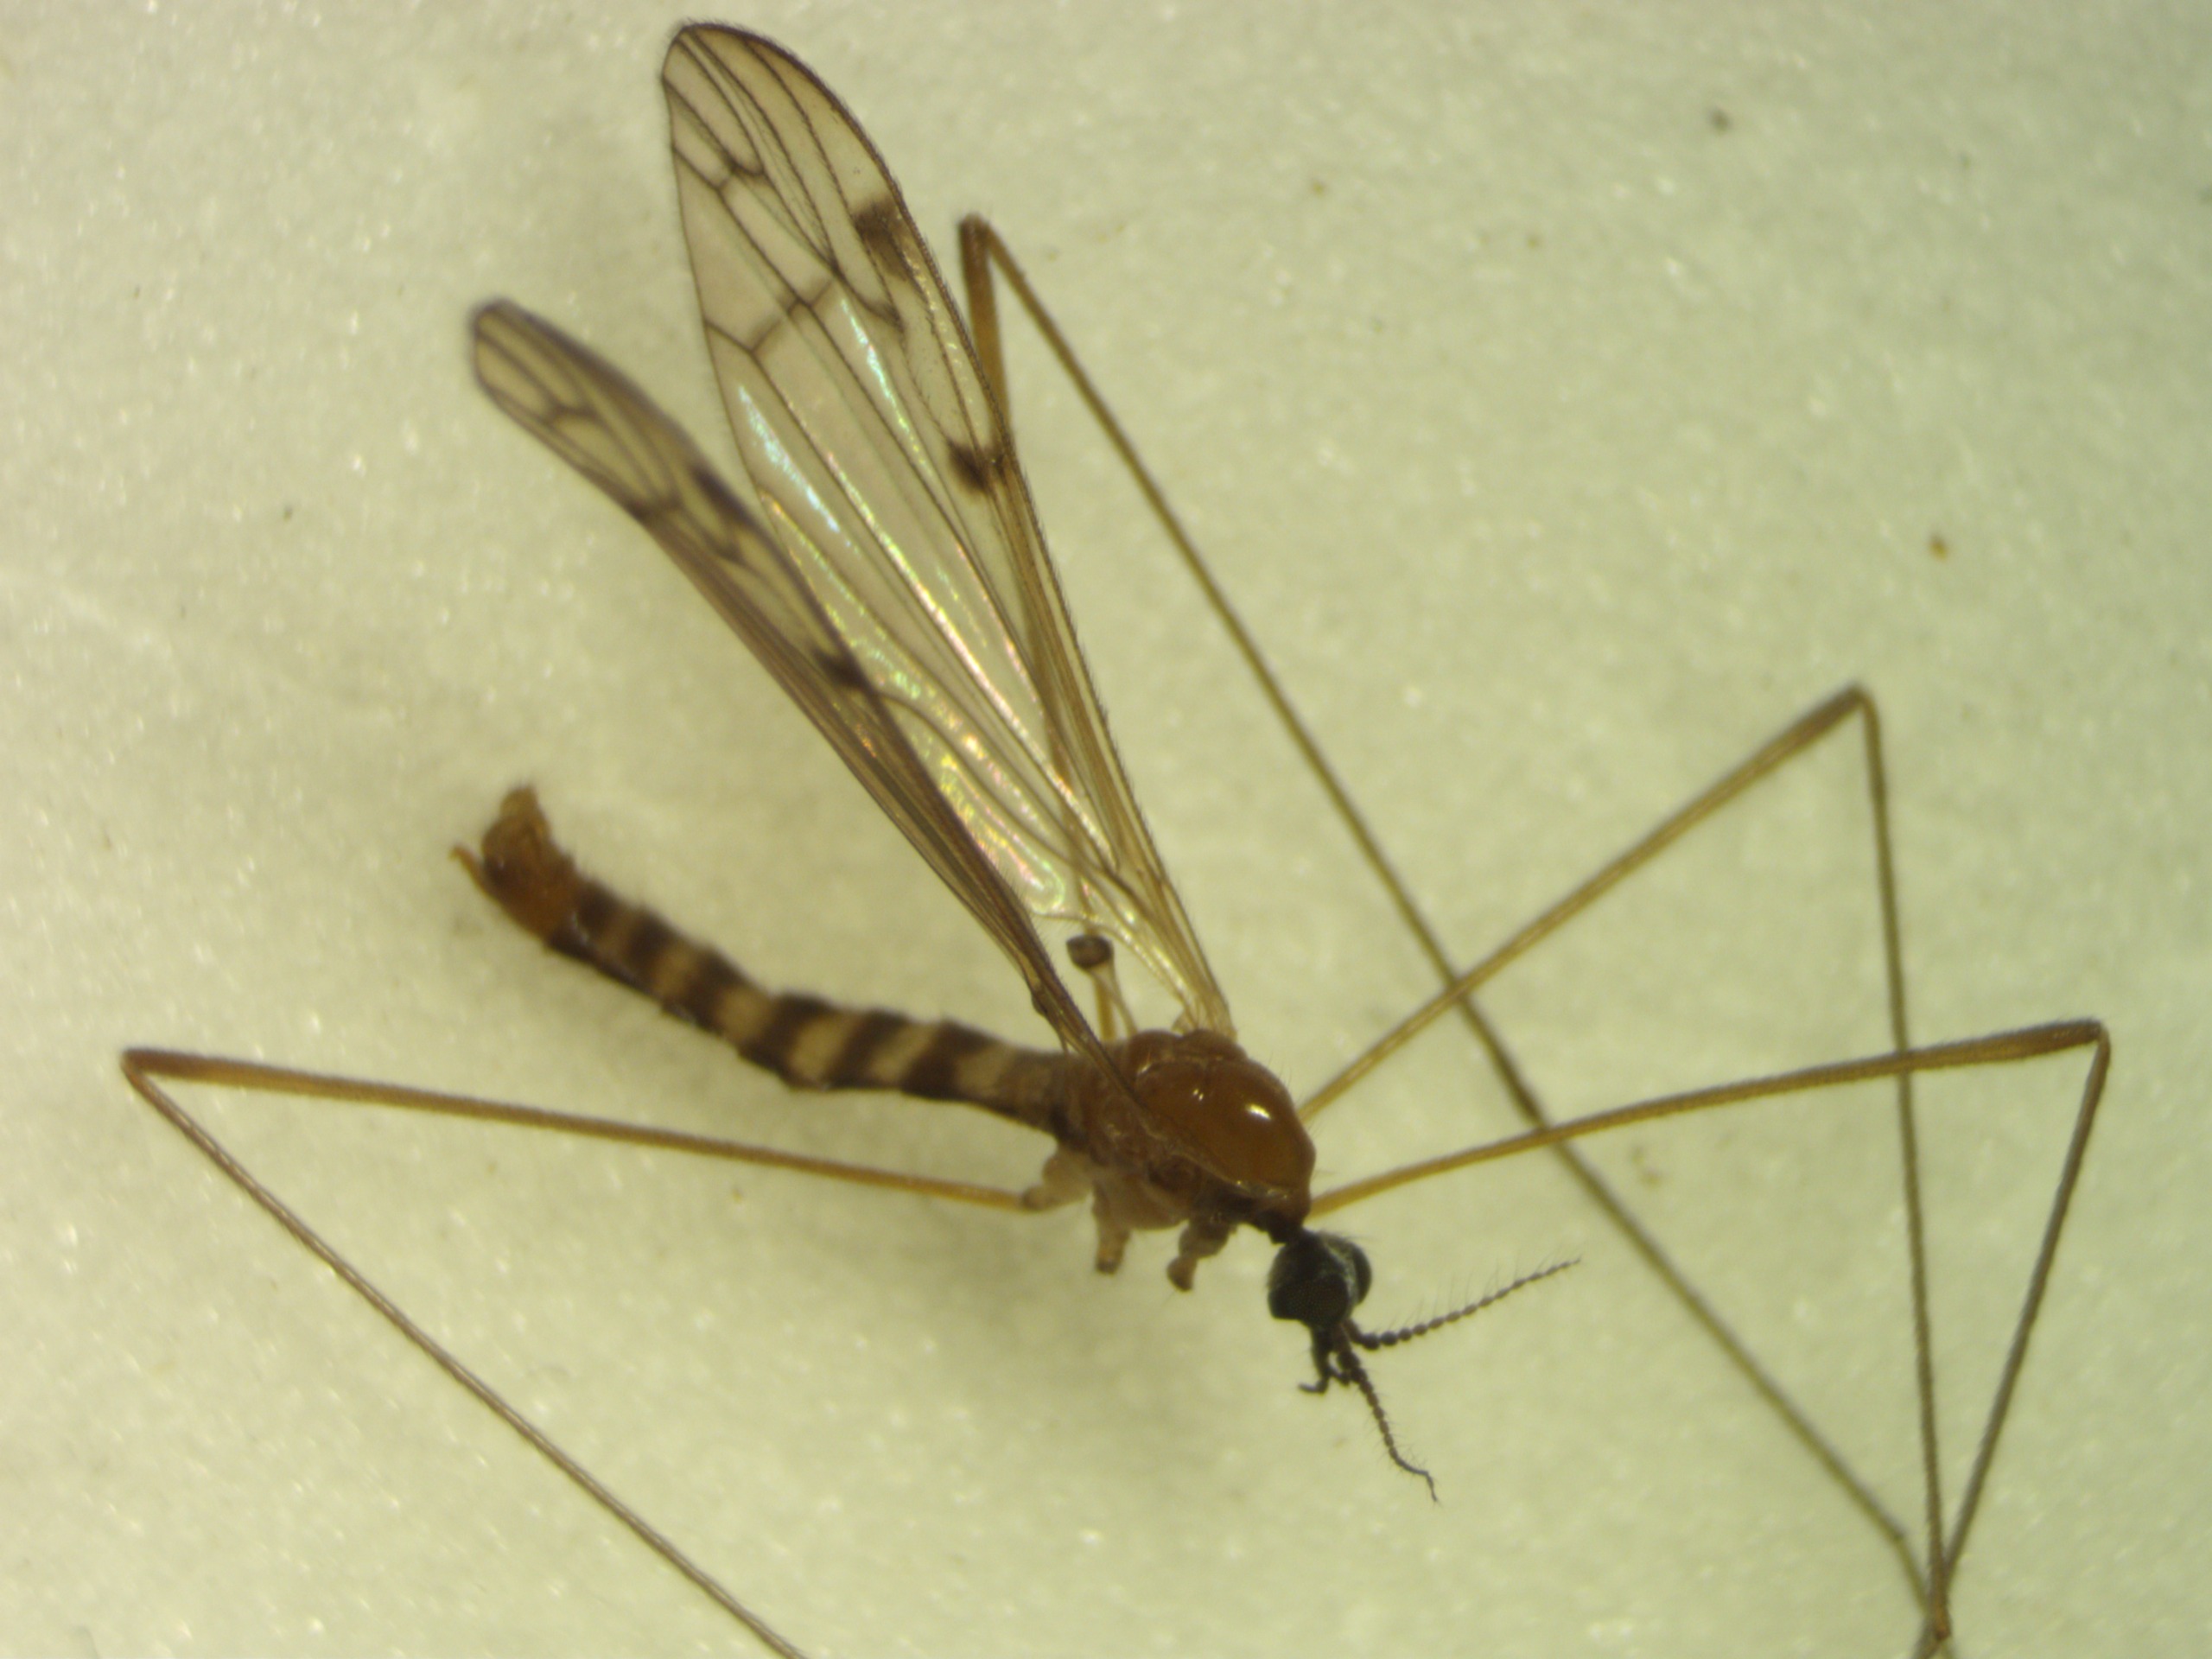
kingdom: Animalia
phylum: Arthropoda
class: Insecta
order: Diptera
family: Limoniidae
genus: Neolimonia
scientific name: Neolimonia dumetorum
